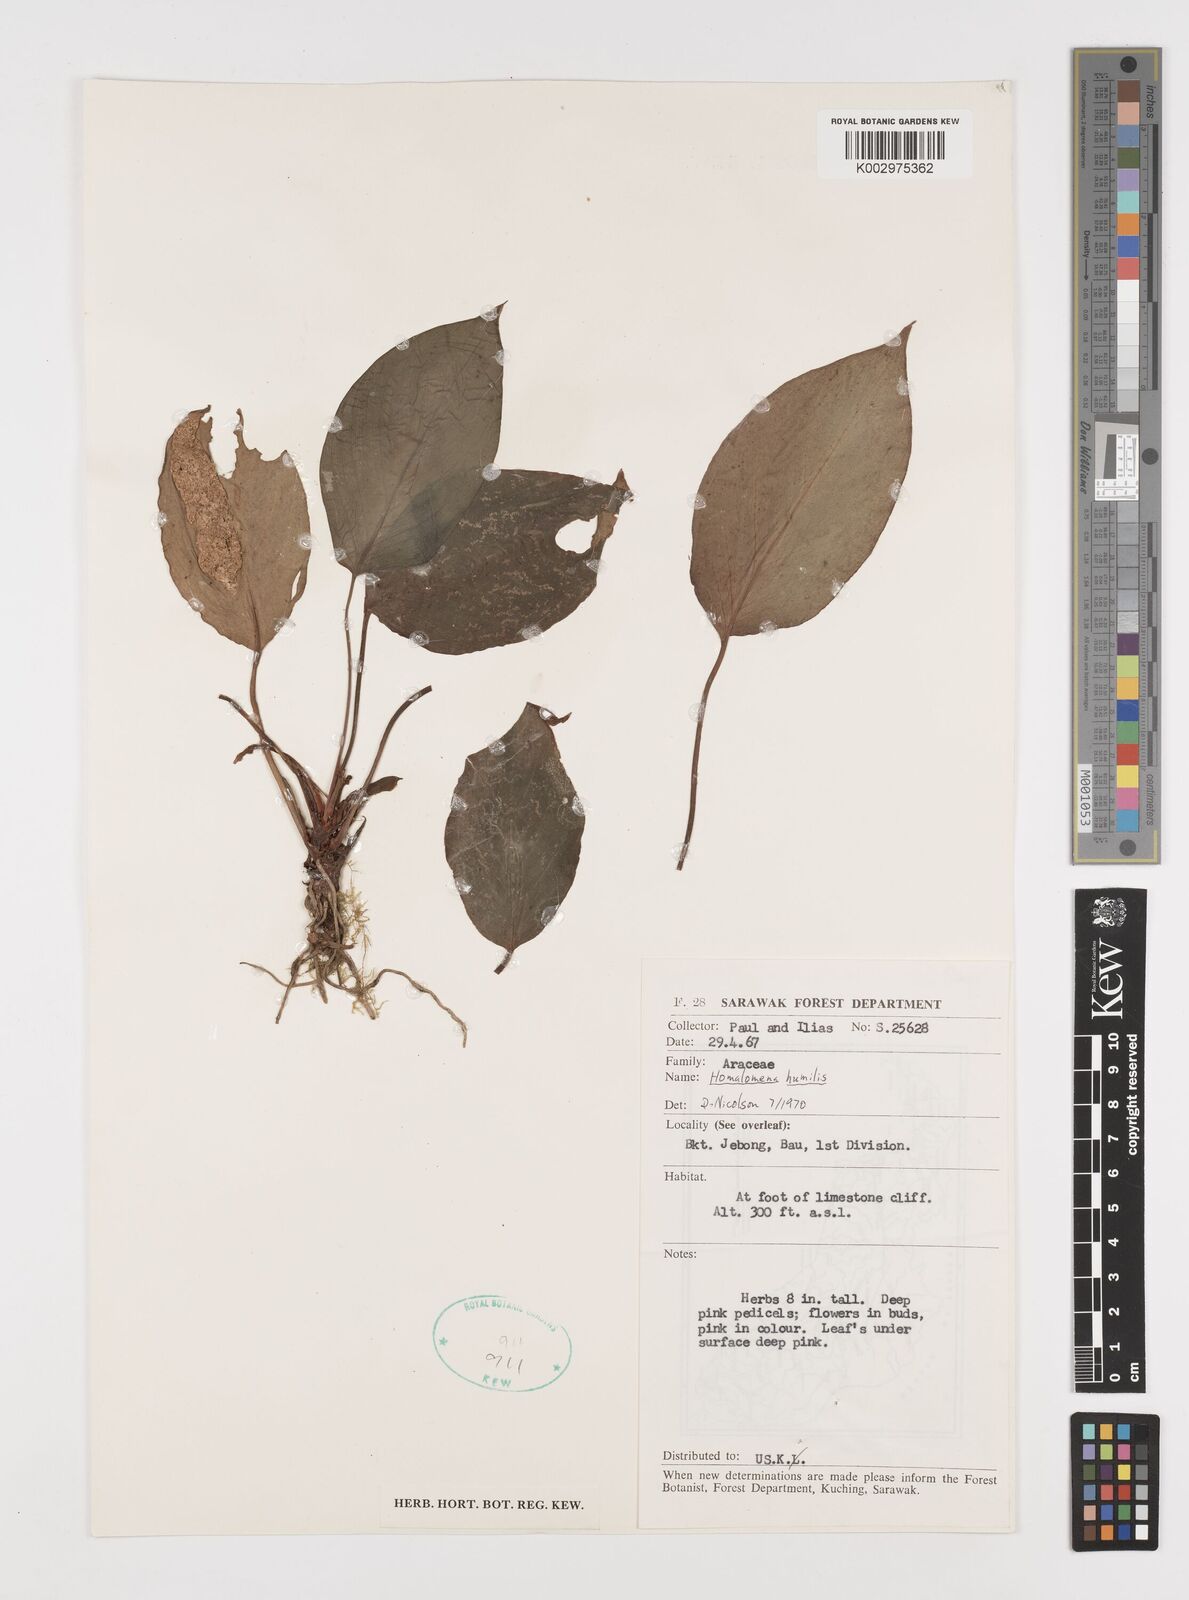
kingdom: Plantae
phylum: Tracheophyta
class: Liliopsida
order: Alismatales
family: Araceae
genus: Homalomena
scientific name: Homalomena humilis
